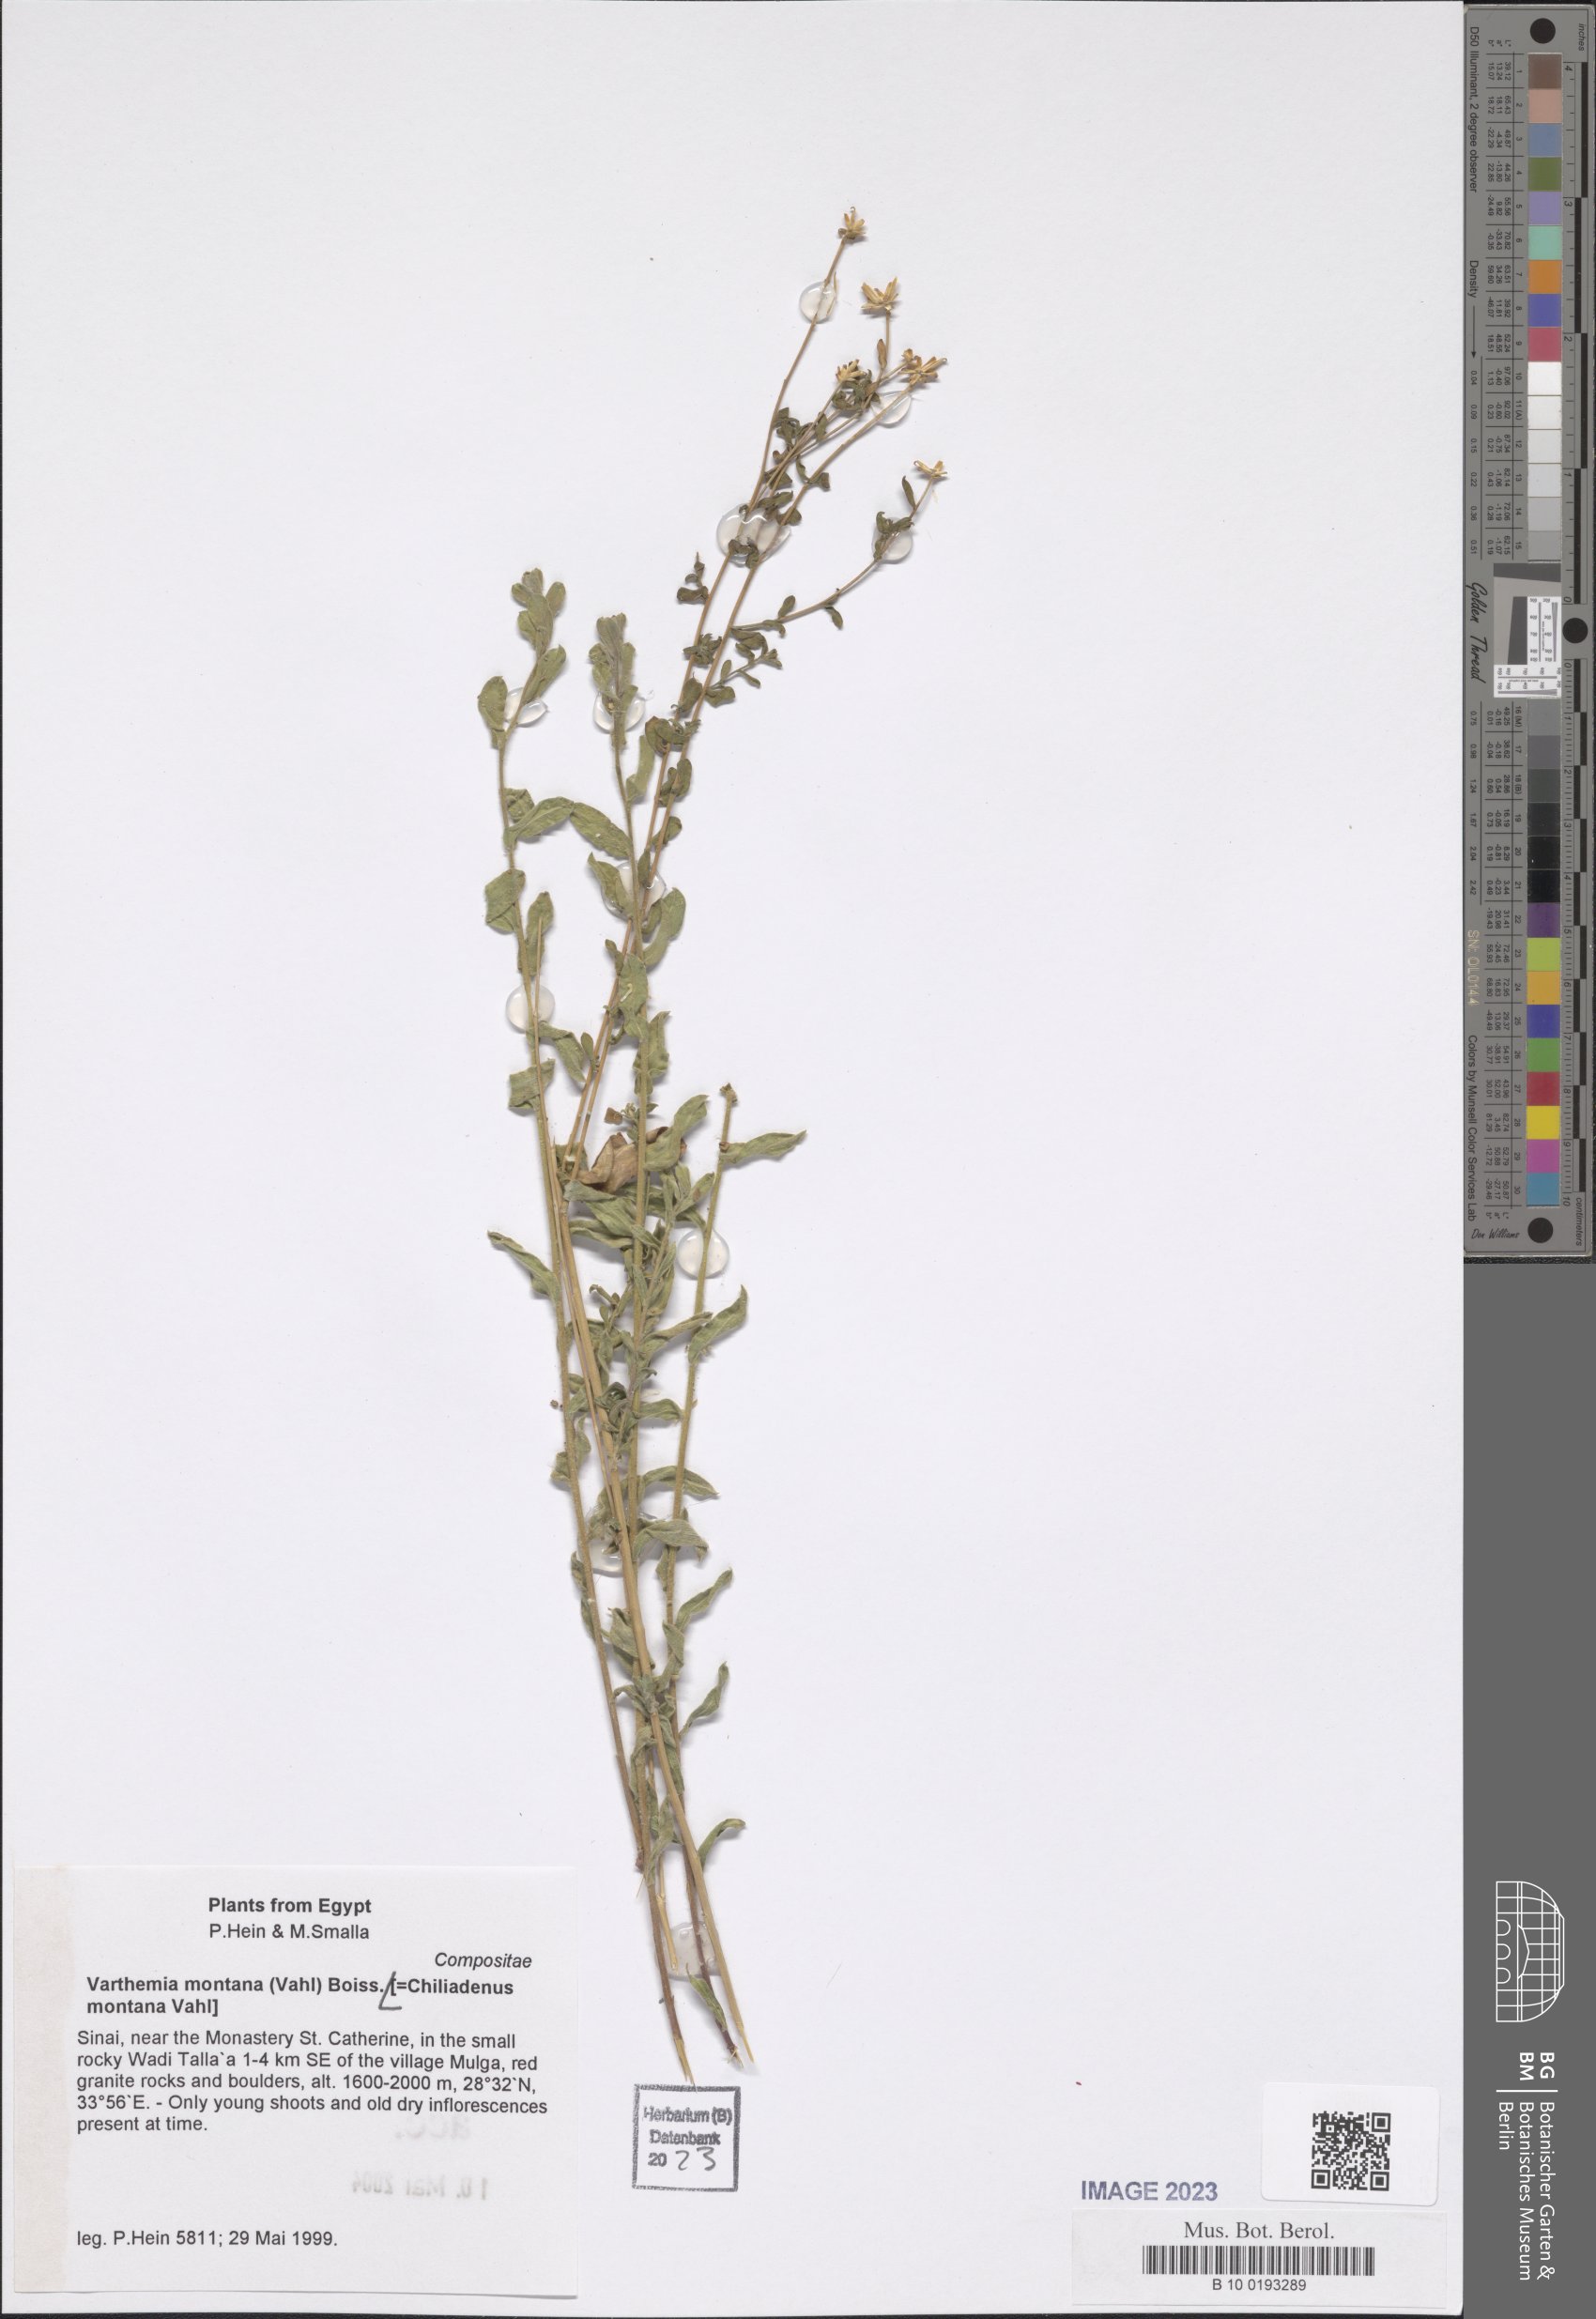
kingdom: Plantae
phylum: Tracheophyta
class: Magnoliopsida
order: Asterales
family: Asteraceae
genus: Chiliadenus
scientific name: Chiliadenus montanus
